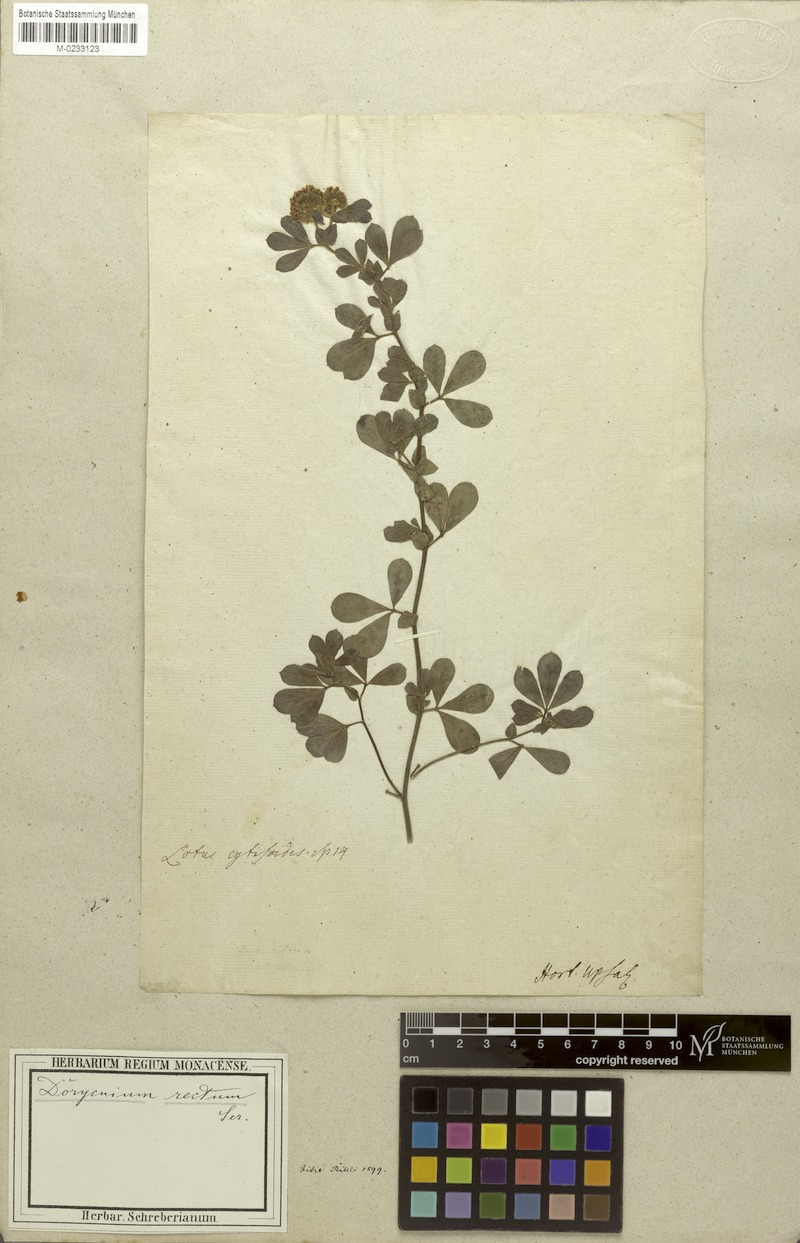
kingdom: Plantae
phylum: Tracheophyta
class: Magnoliopsida
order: Fabales
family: Fabaceae
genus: Lotus
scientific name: Lotus rectus
